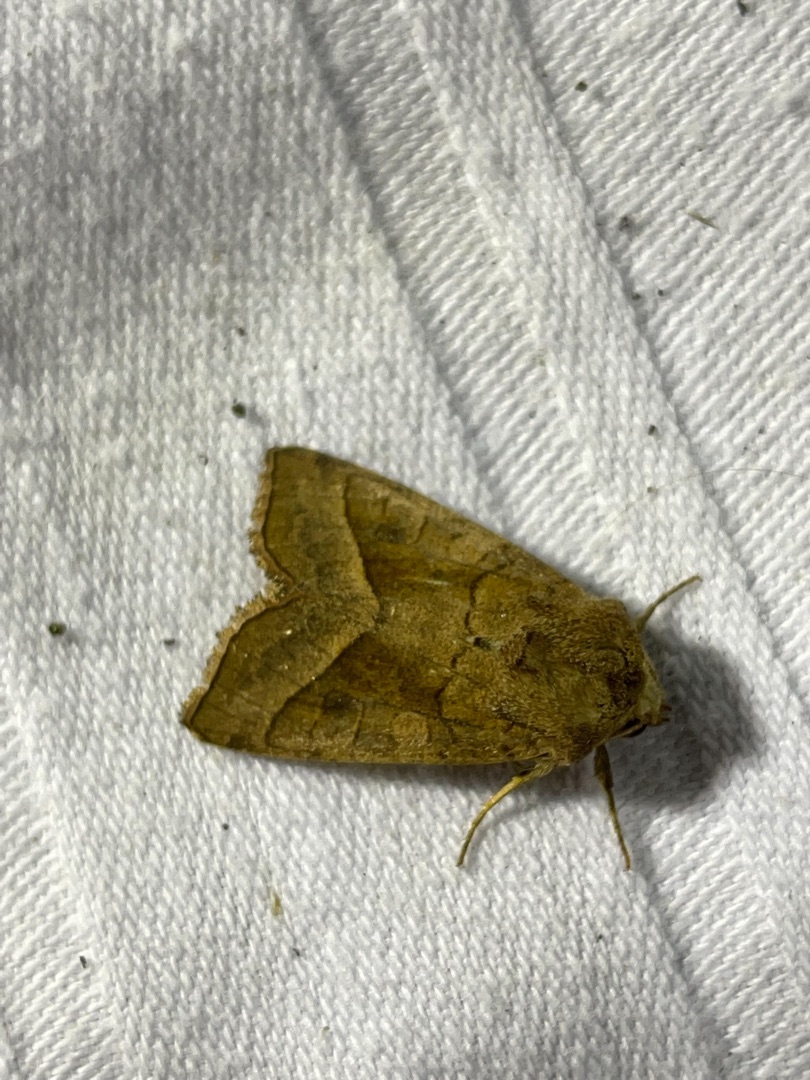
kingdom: Animalia
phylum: Arthropoda
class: Insecta
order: Lepidoptera
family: Noctuidae
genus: Hydraecia
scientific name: Hydraecia micacea
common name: Kartoffelborer
